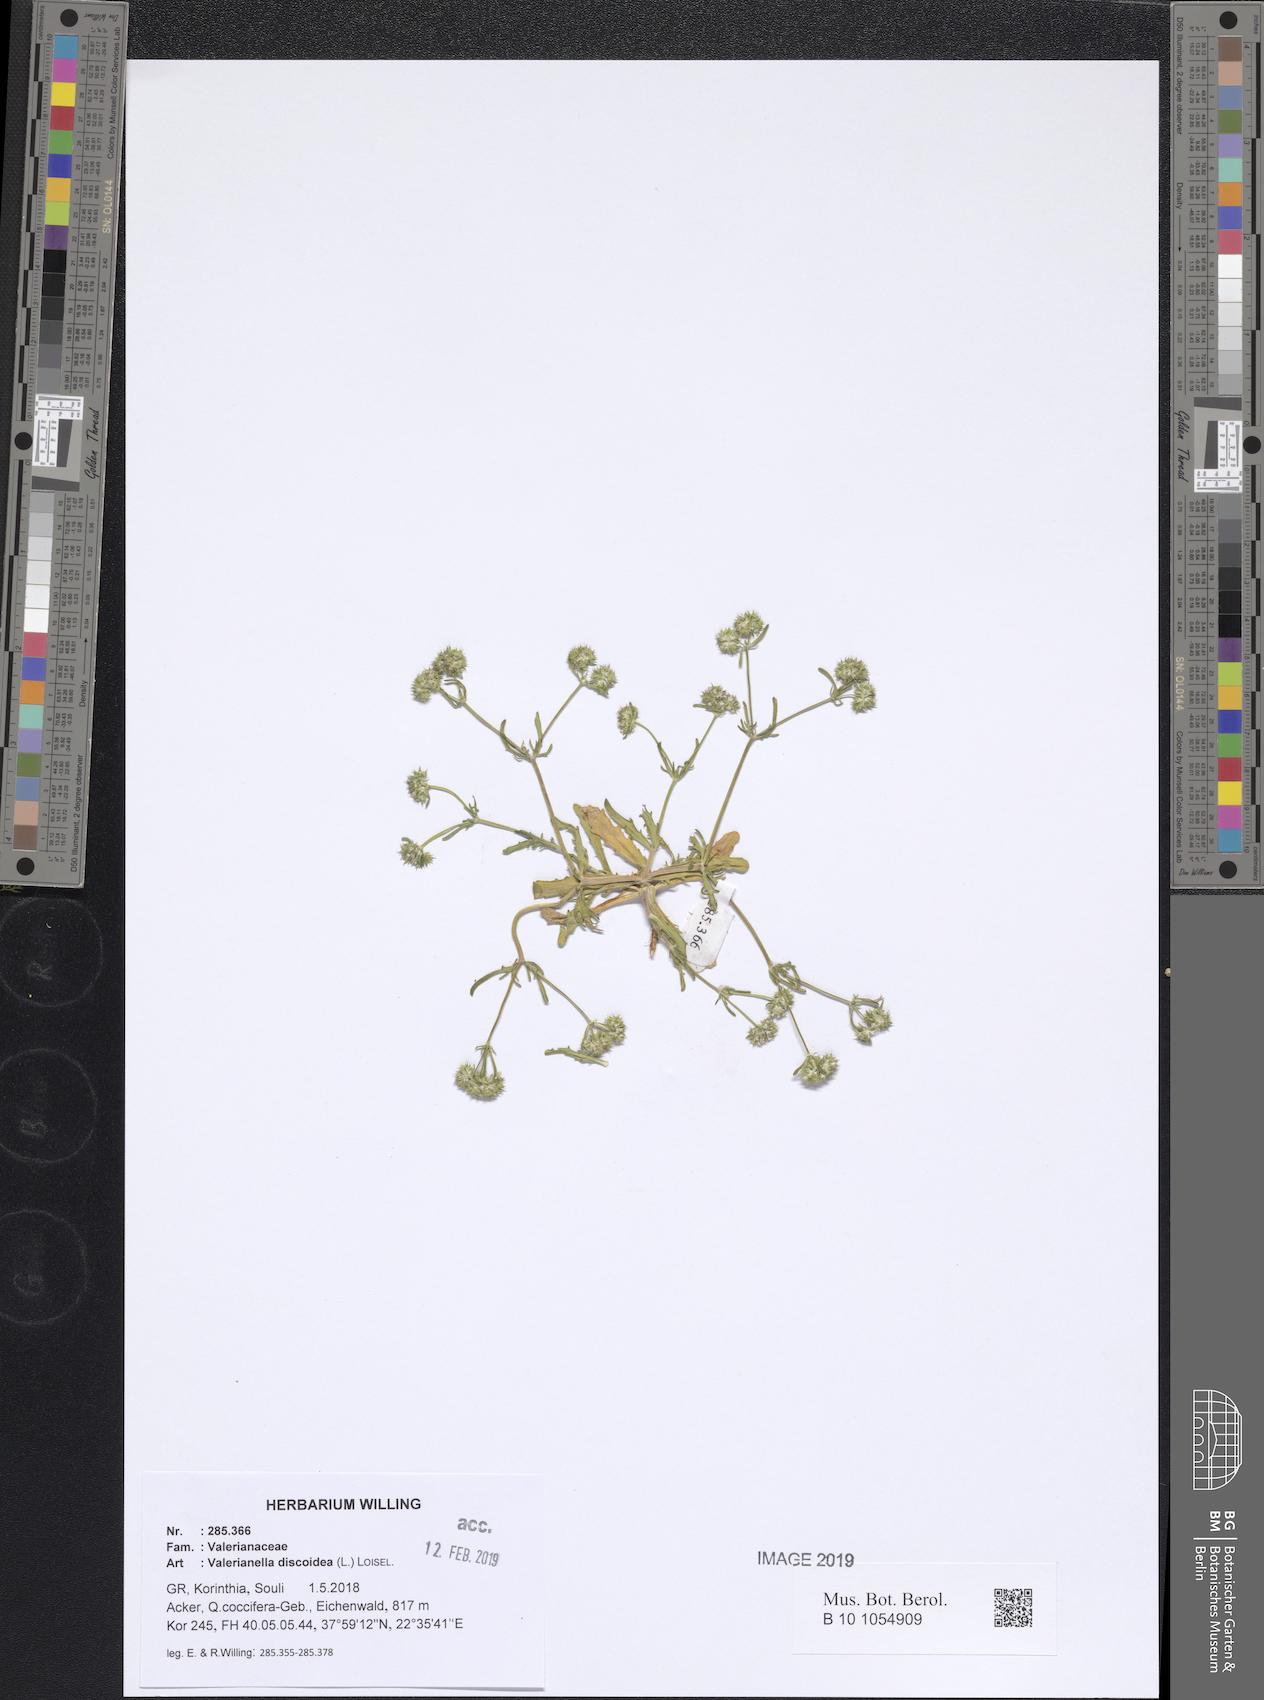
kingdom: Plantae
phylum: Tracheophyta
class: Magnoliopsida
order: Dipsacales
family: Caprifoliaceae
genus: Valerianella
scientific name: Valerianella discoidea
